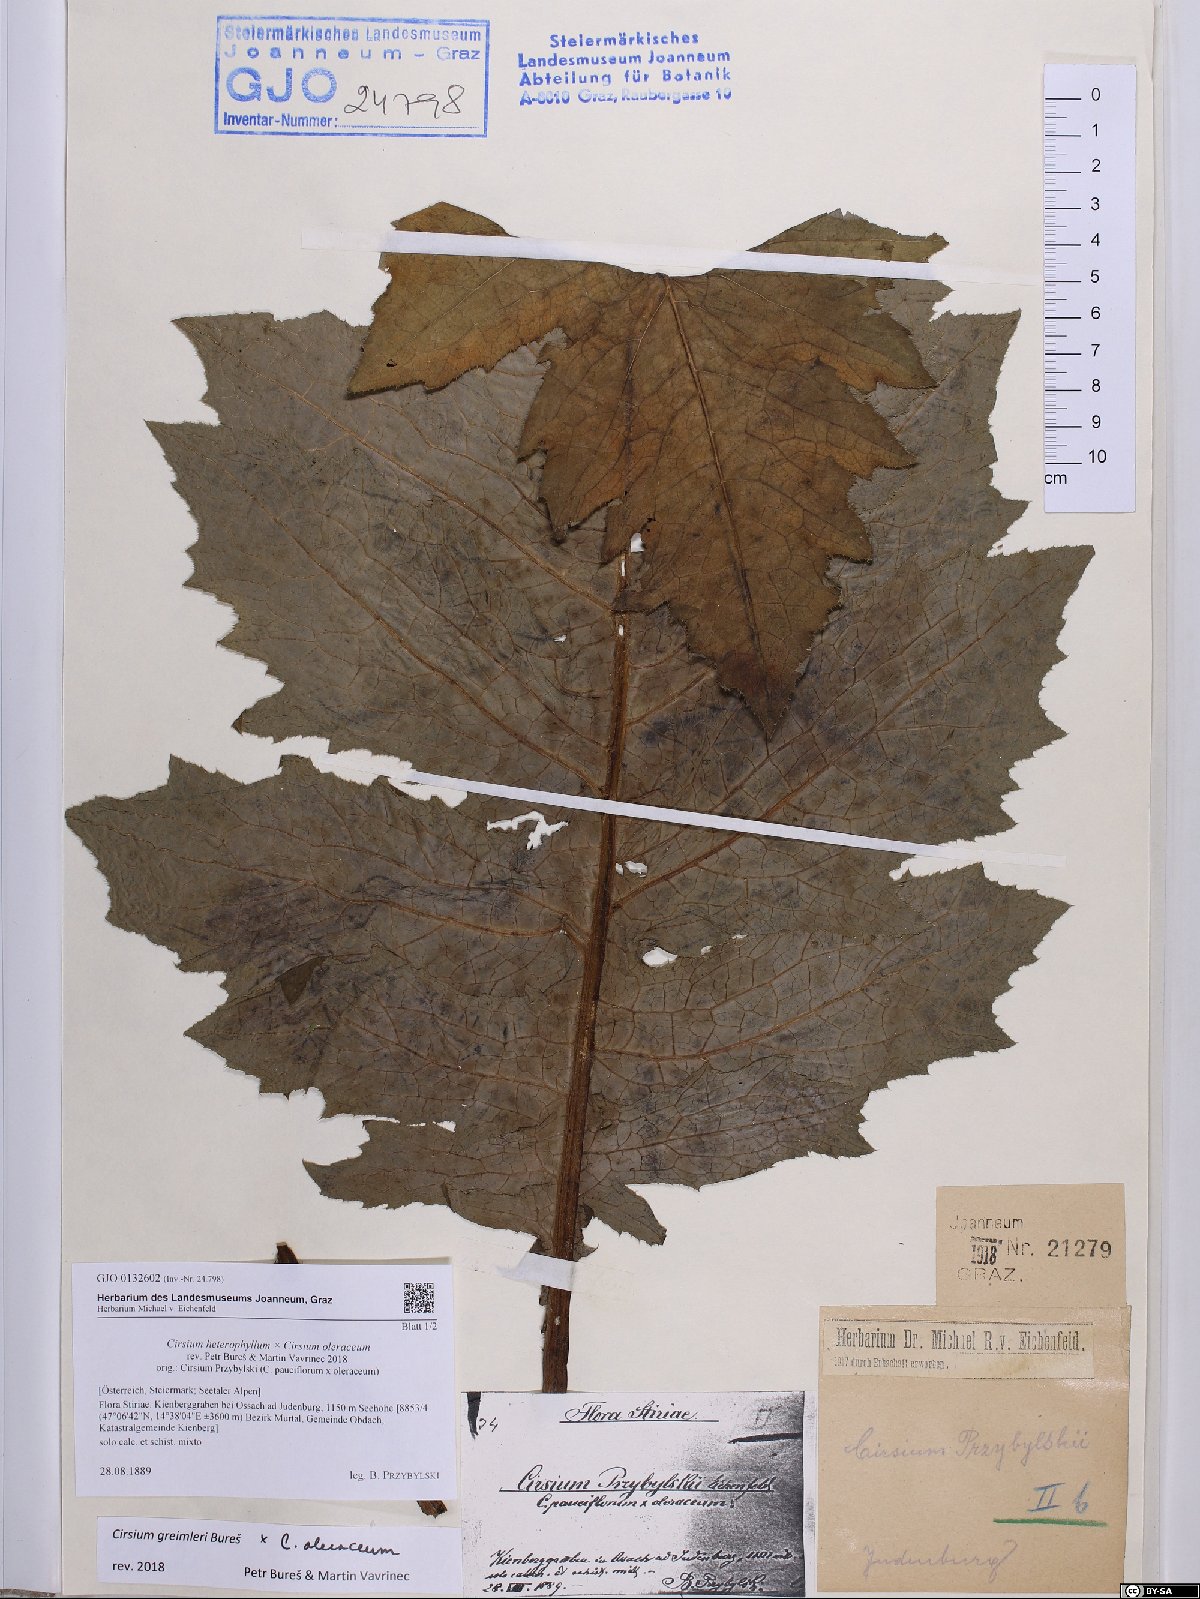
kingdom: Plantae
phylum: Tracheophyta
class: Magnoliopsida
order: Asterales
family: Asteraceae
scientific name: Asteraceae
